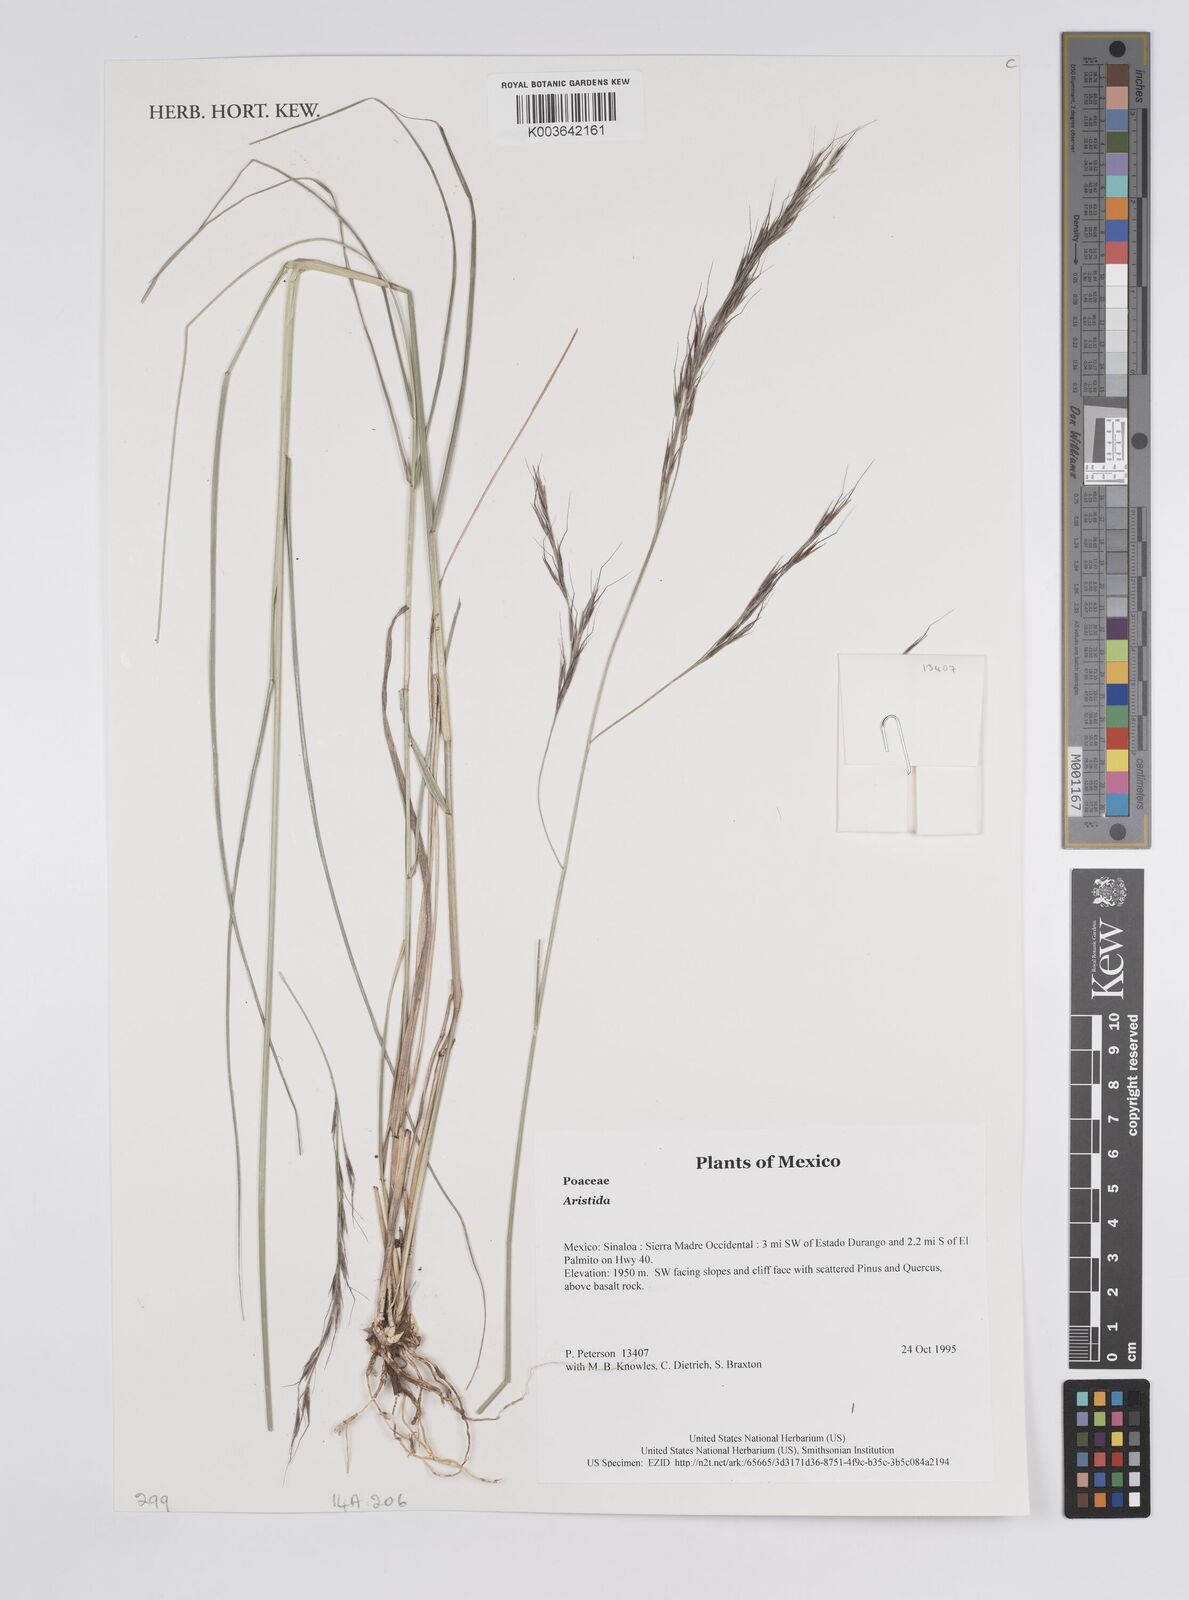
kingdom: Plantae
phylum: Tracheophyta
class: Liliopsida
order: Poales
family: Poaceae
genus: Aristida
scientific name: Aristida
